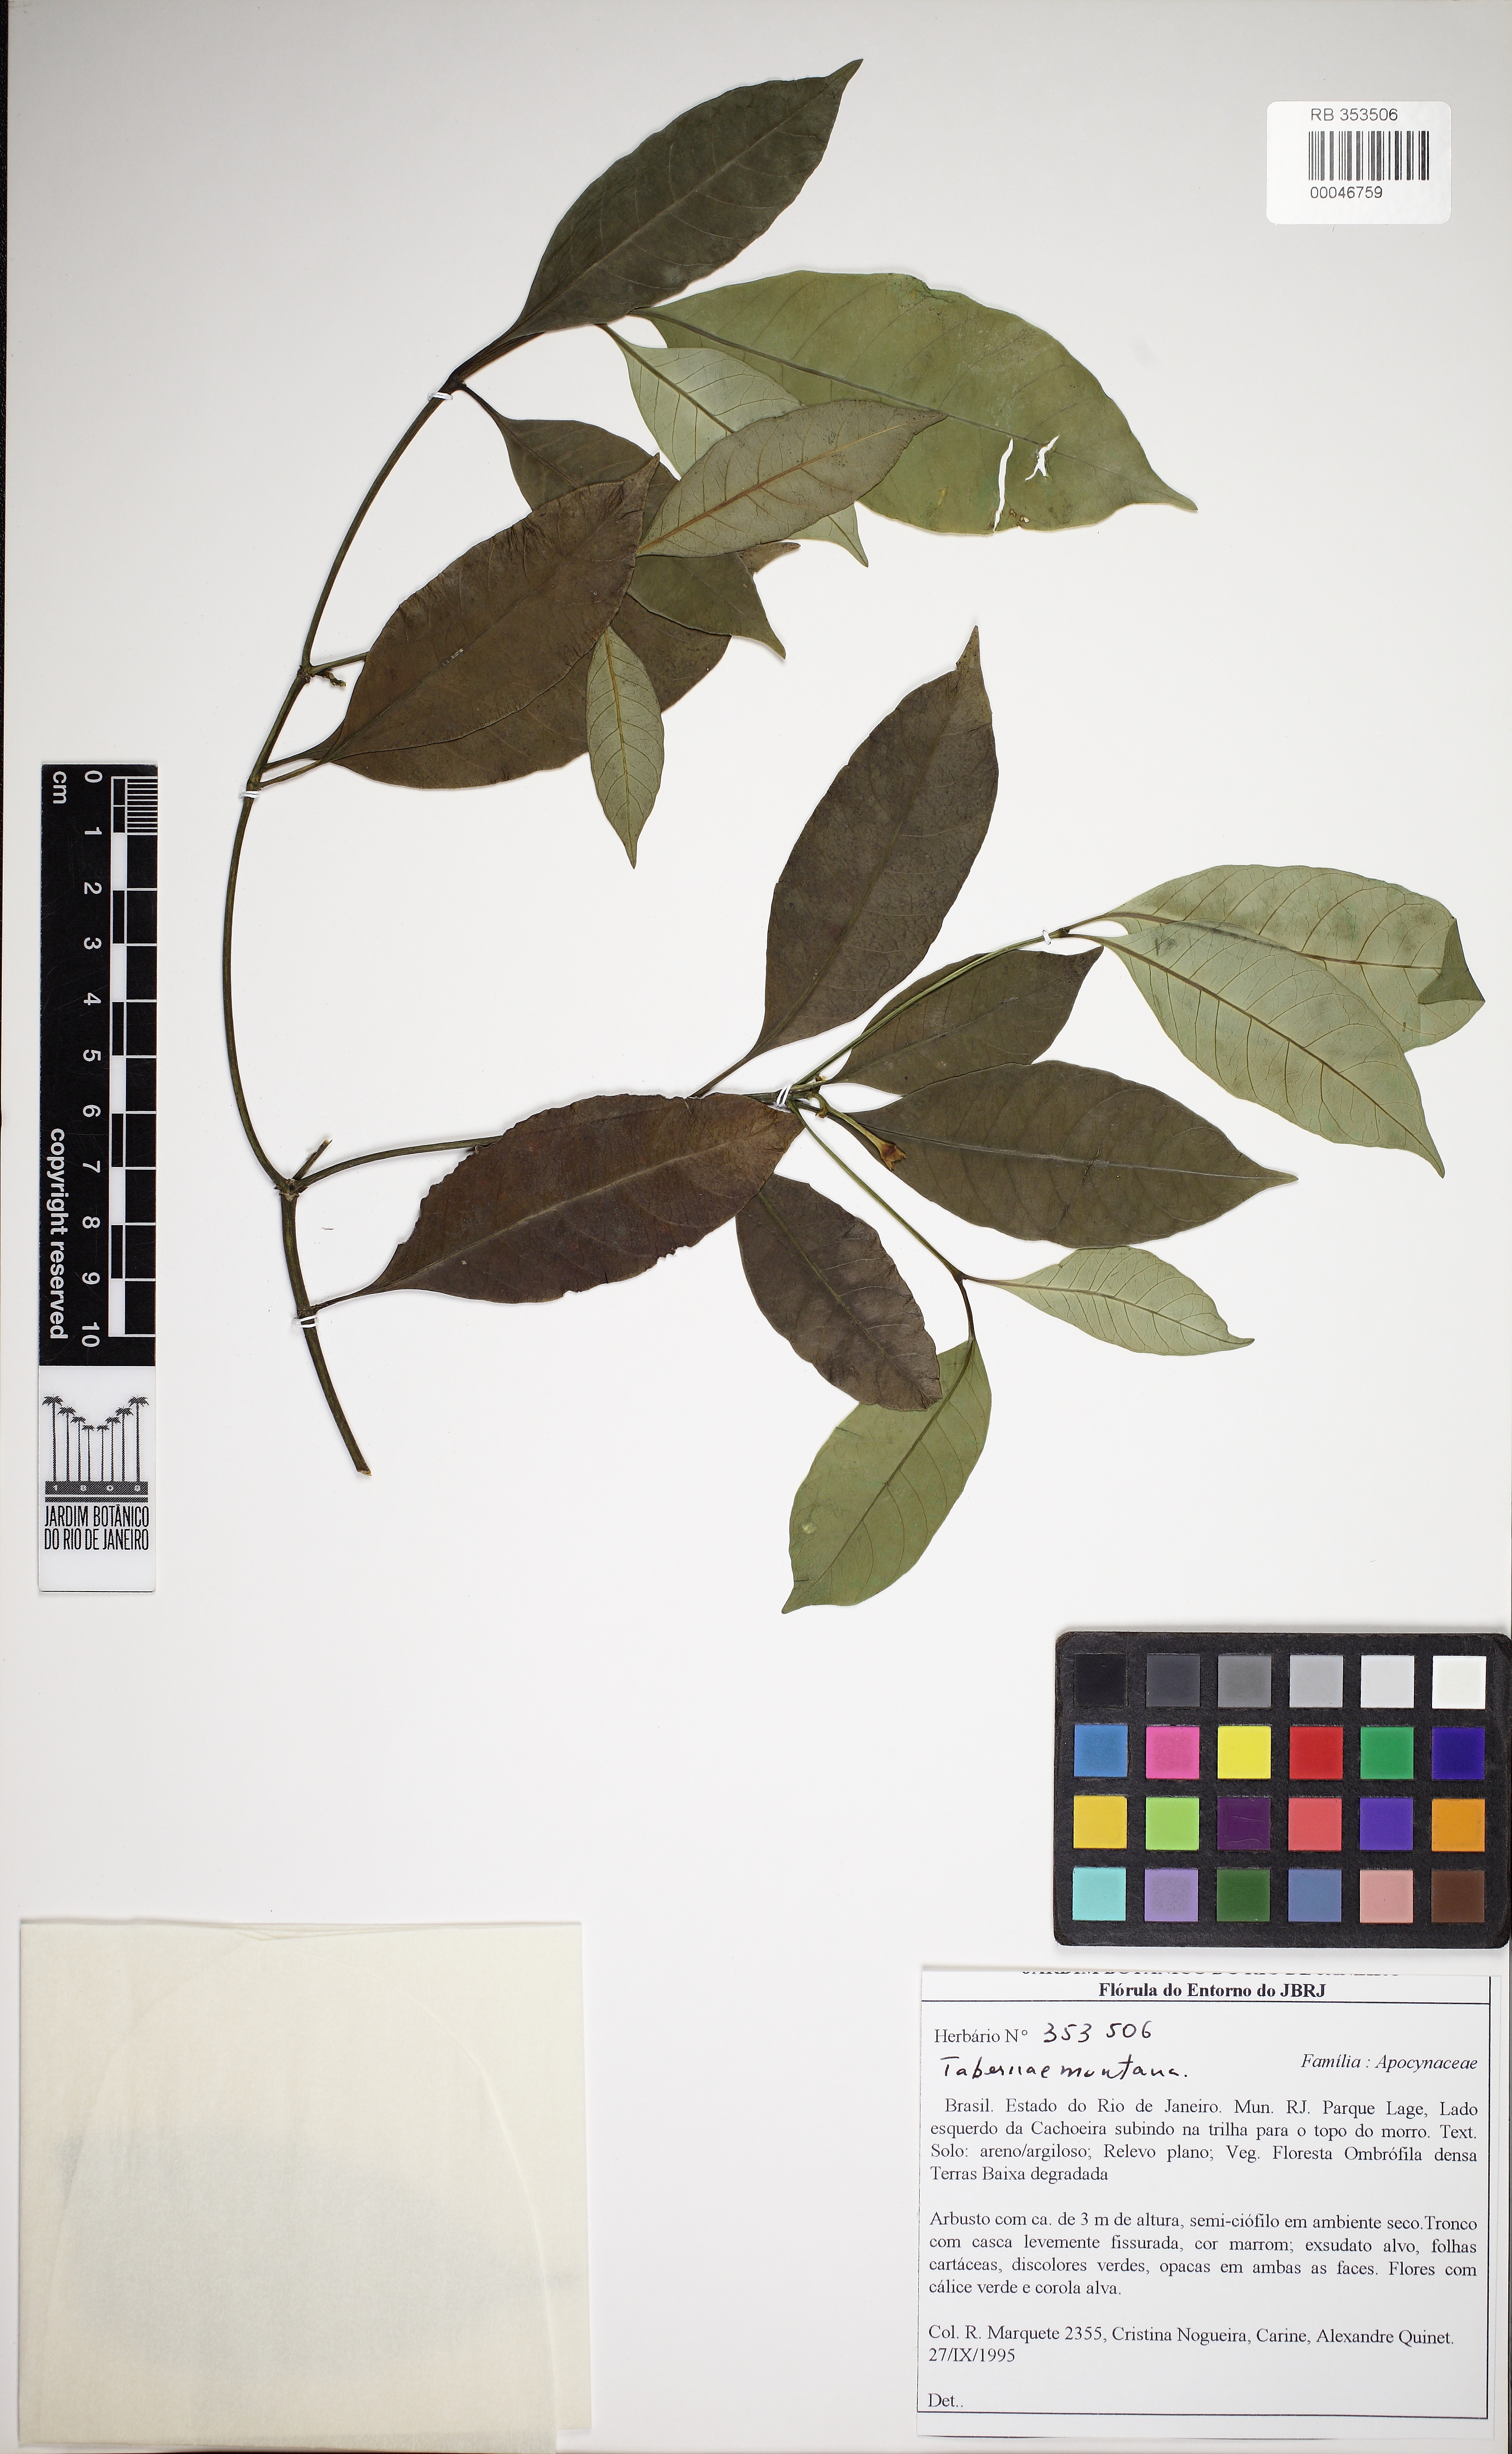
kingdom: Plantae
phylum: Tracheophyta
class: Magnoliopsida
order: Gentianales
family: Apocynaceae
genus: Tabernaemontana
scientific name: Tabernaemontana
